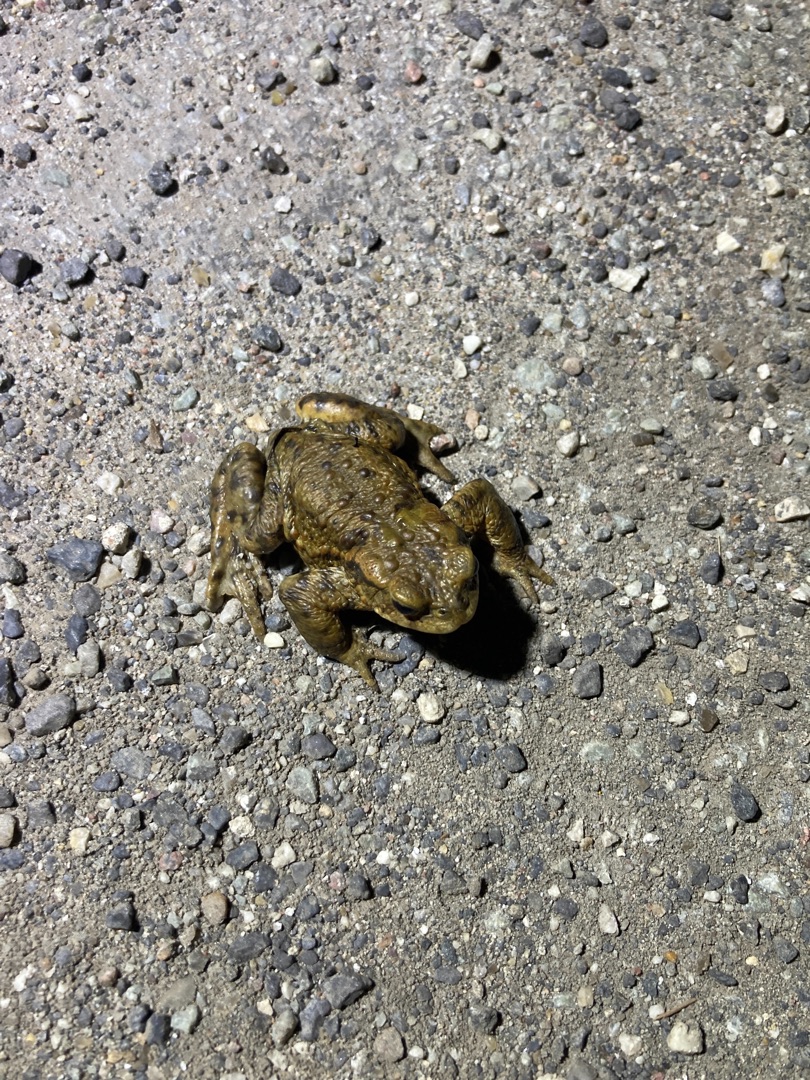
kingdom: Animalia
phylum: Chordata
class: Amphibia
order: Anura
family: Bufonidae
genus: Bufo
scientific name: Bufo bufo
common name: Skrubtudse
